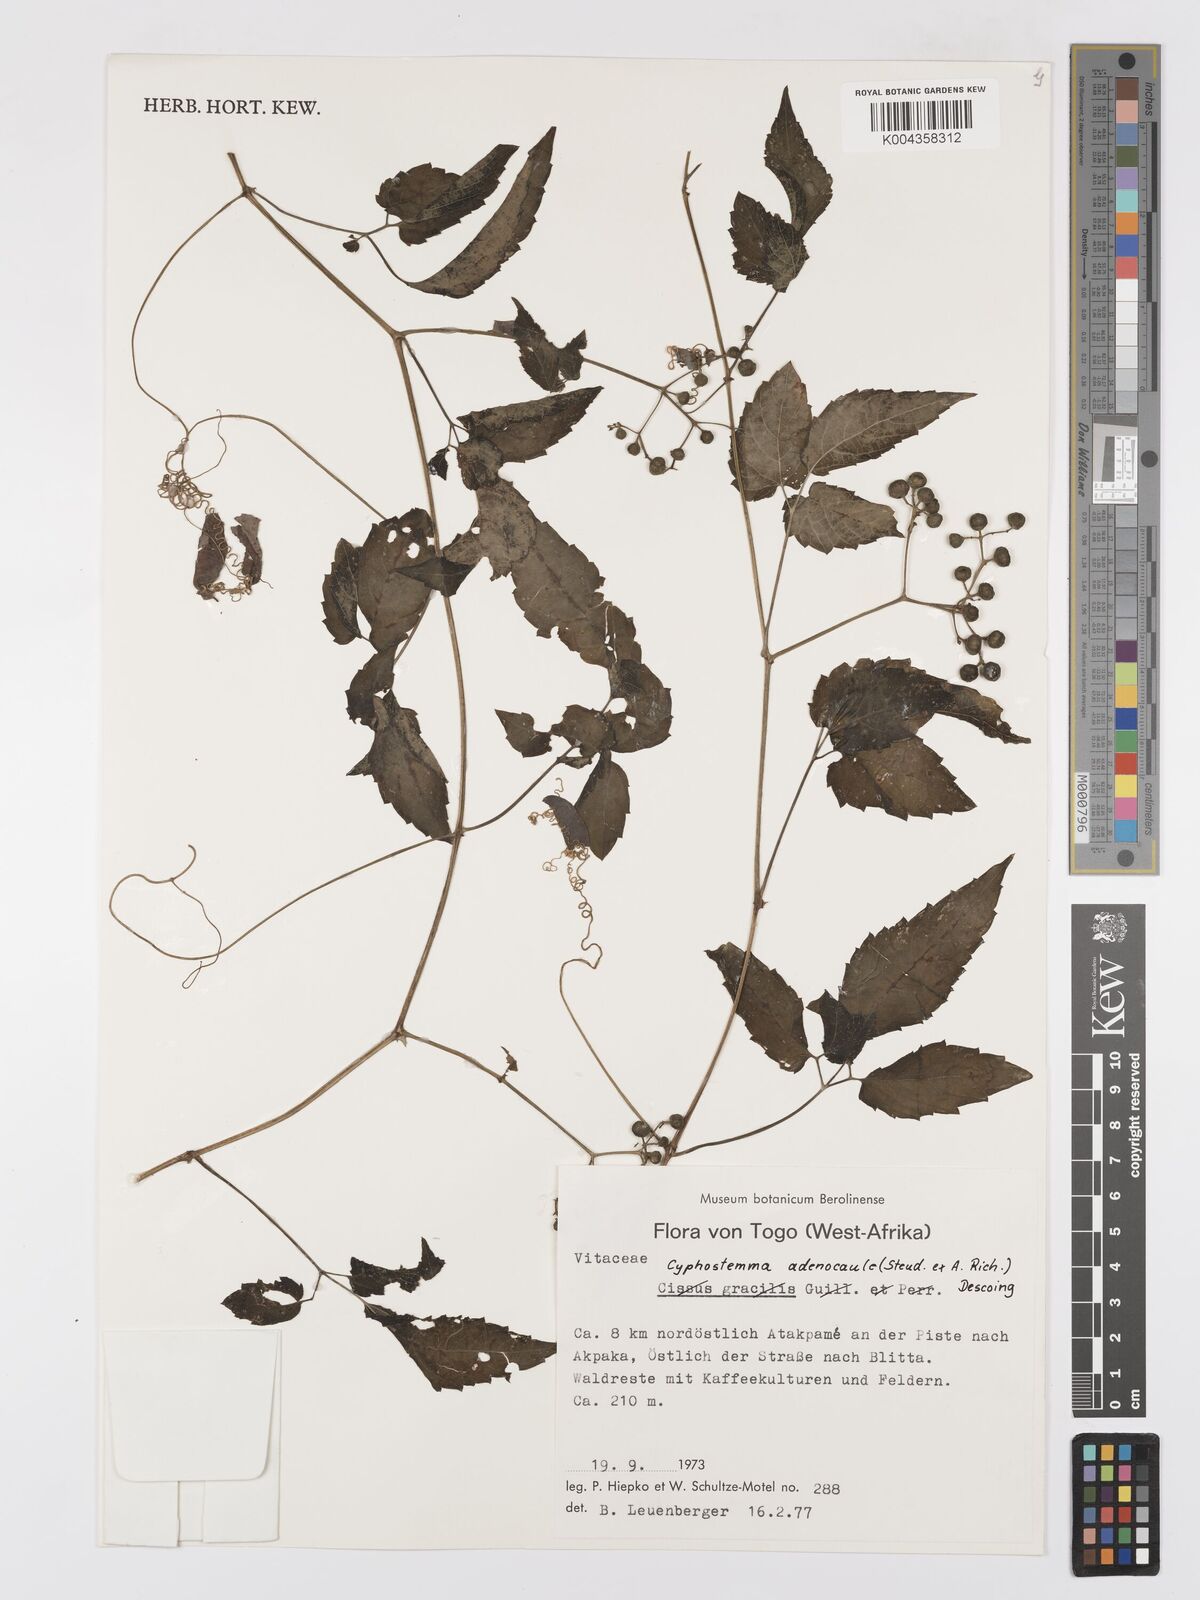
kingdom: Plantae
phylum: Tracheophyta
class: Magnoliopsida
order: Vitales
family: Vitaceae
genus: Afrocayratia
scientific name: Afrocayratia gracilis
